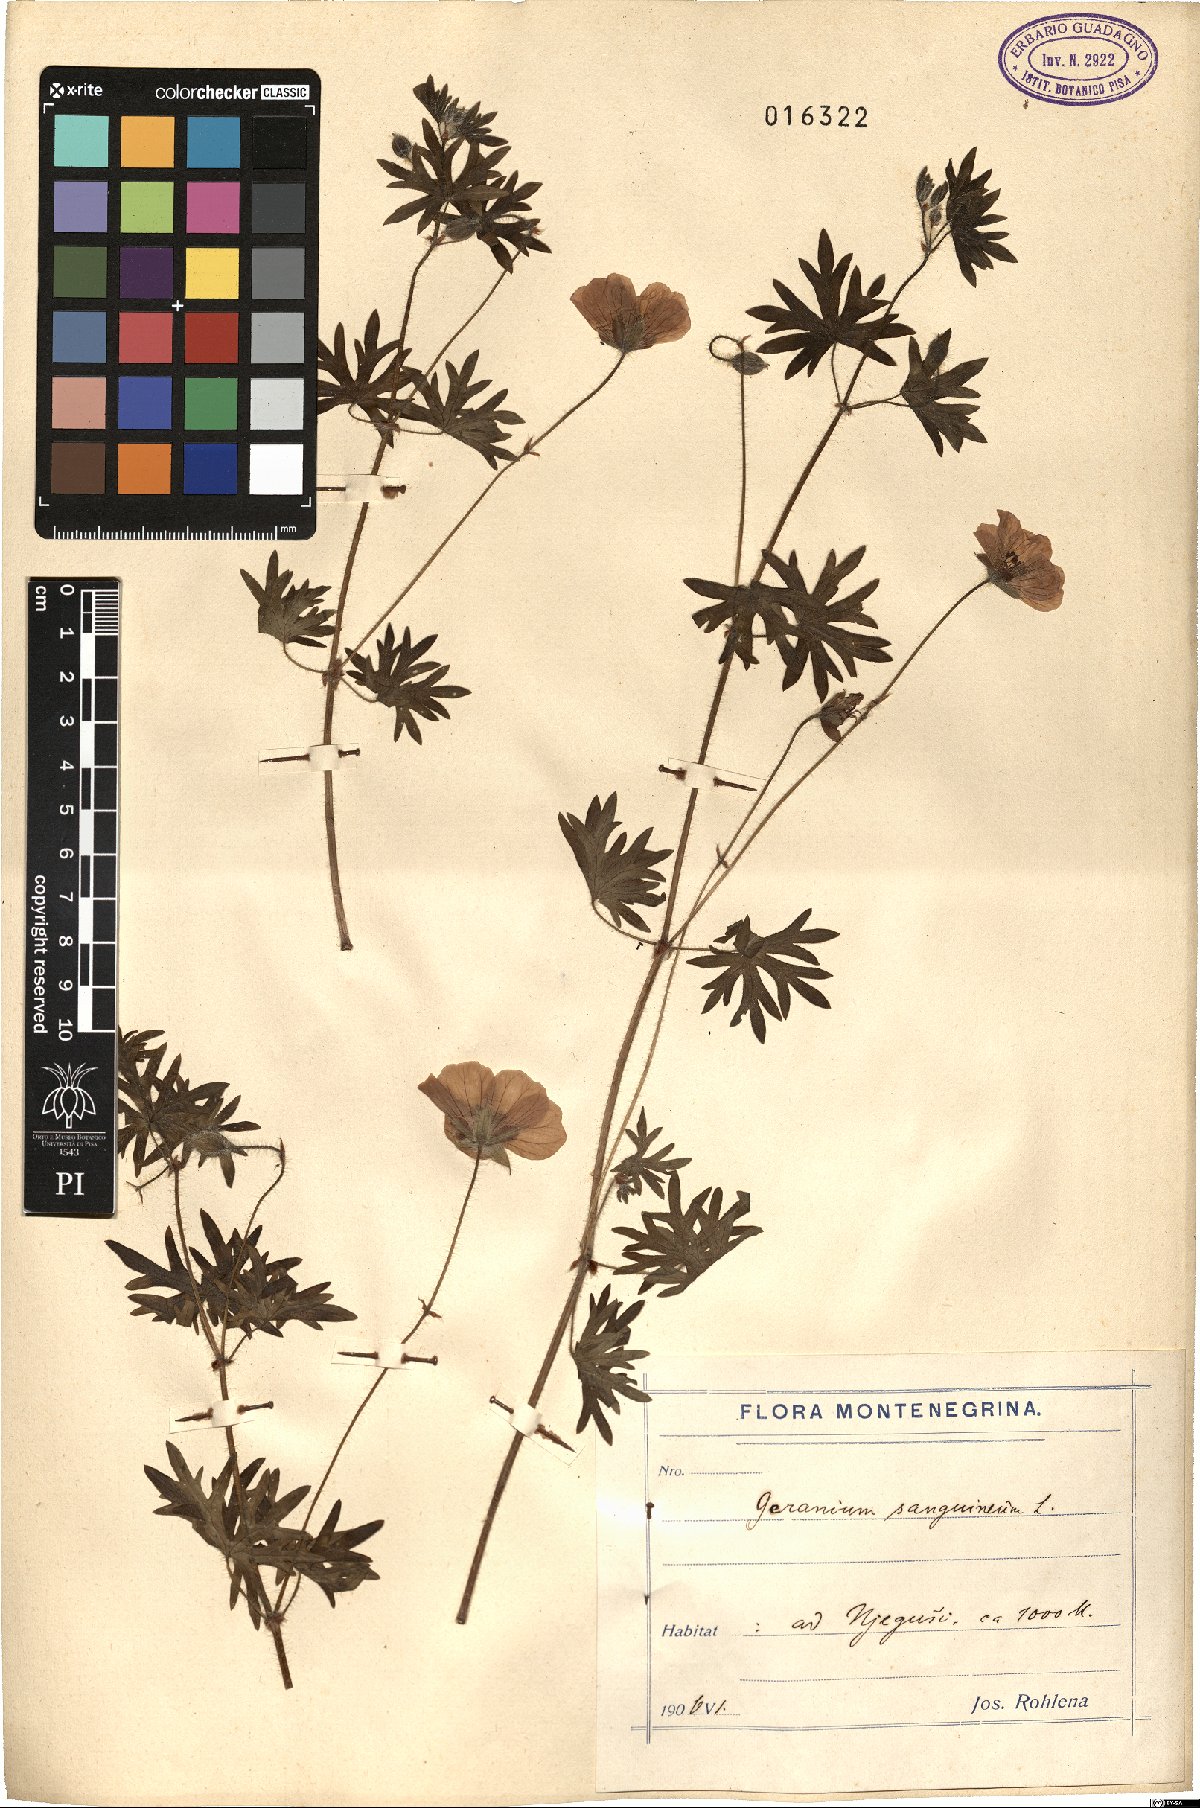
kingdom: Plantae
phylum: Tracheophyta
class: Magnoliopsida
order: Geraniales
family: Geraniaceae
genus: Geranium
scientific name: Geranium sanguineum
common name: Bloody crane's-bill
